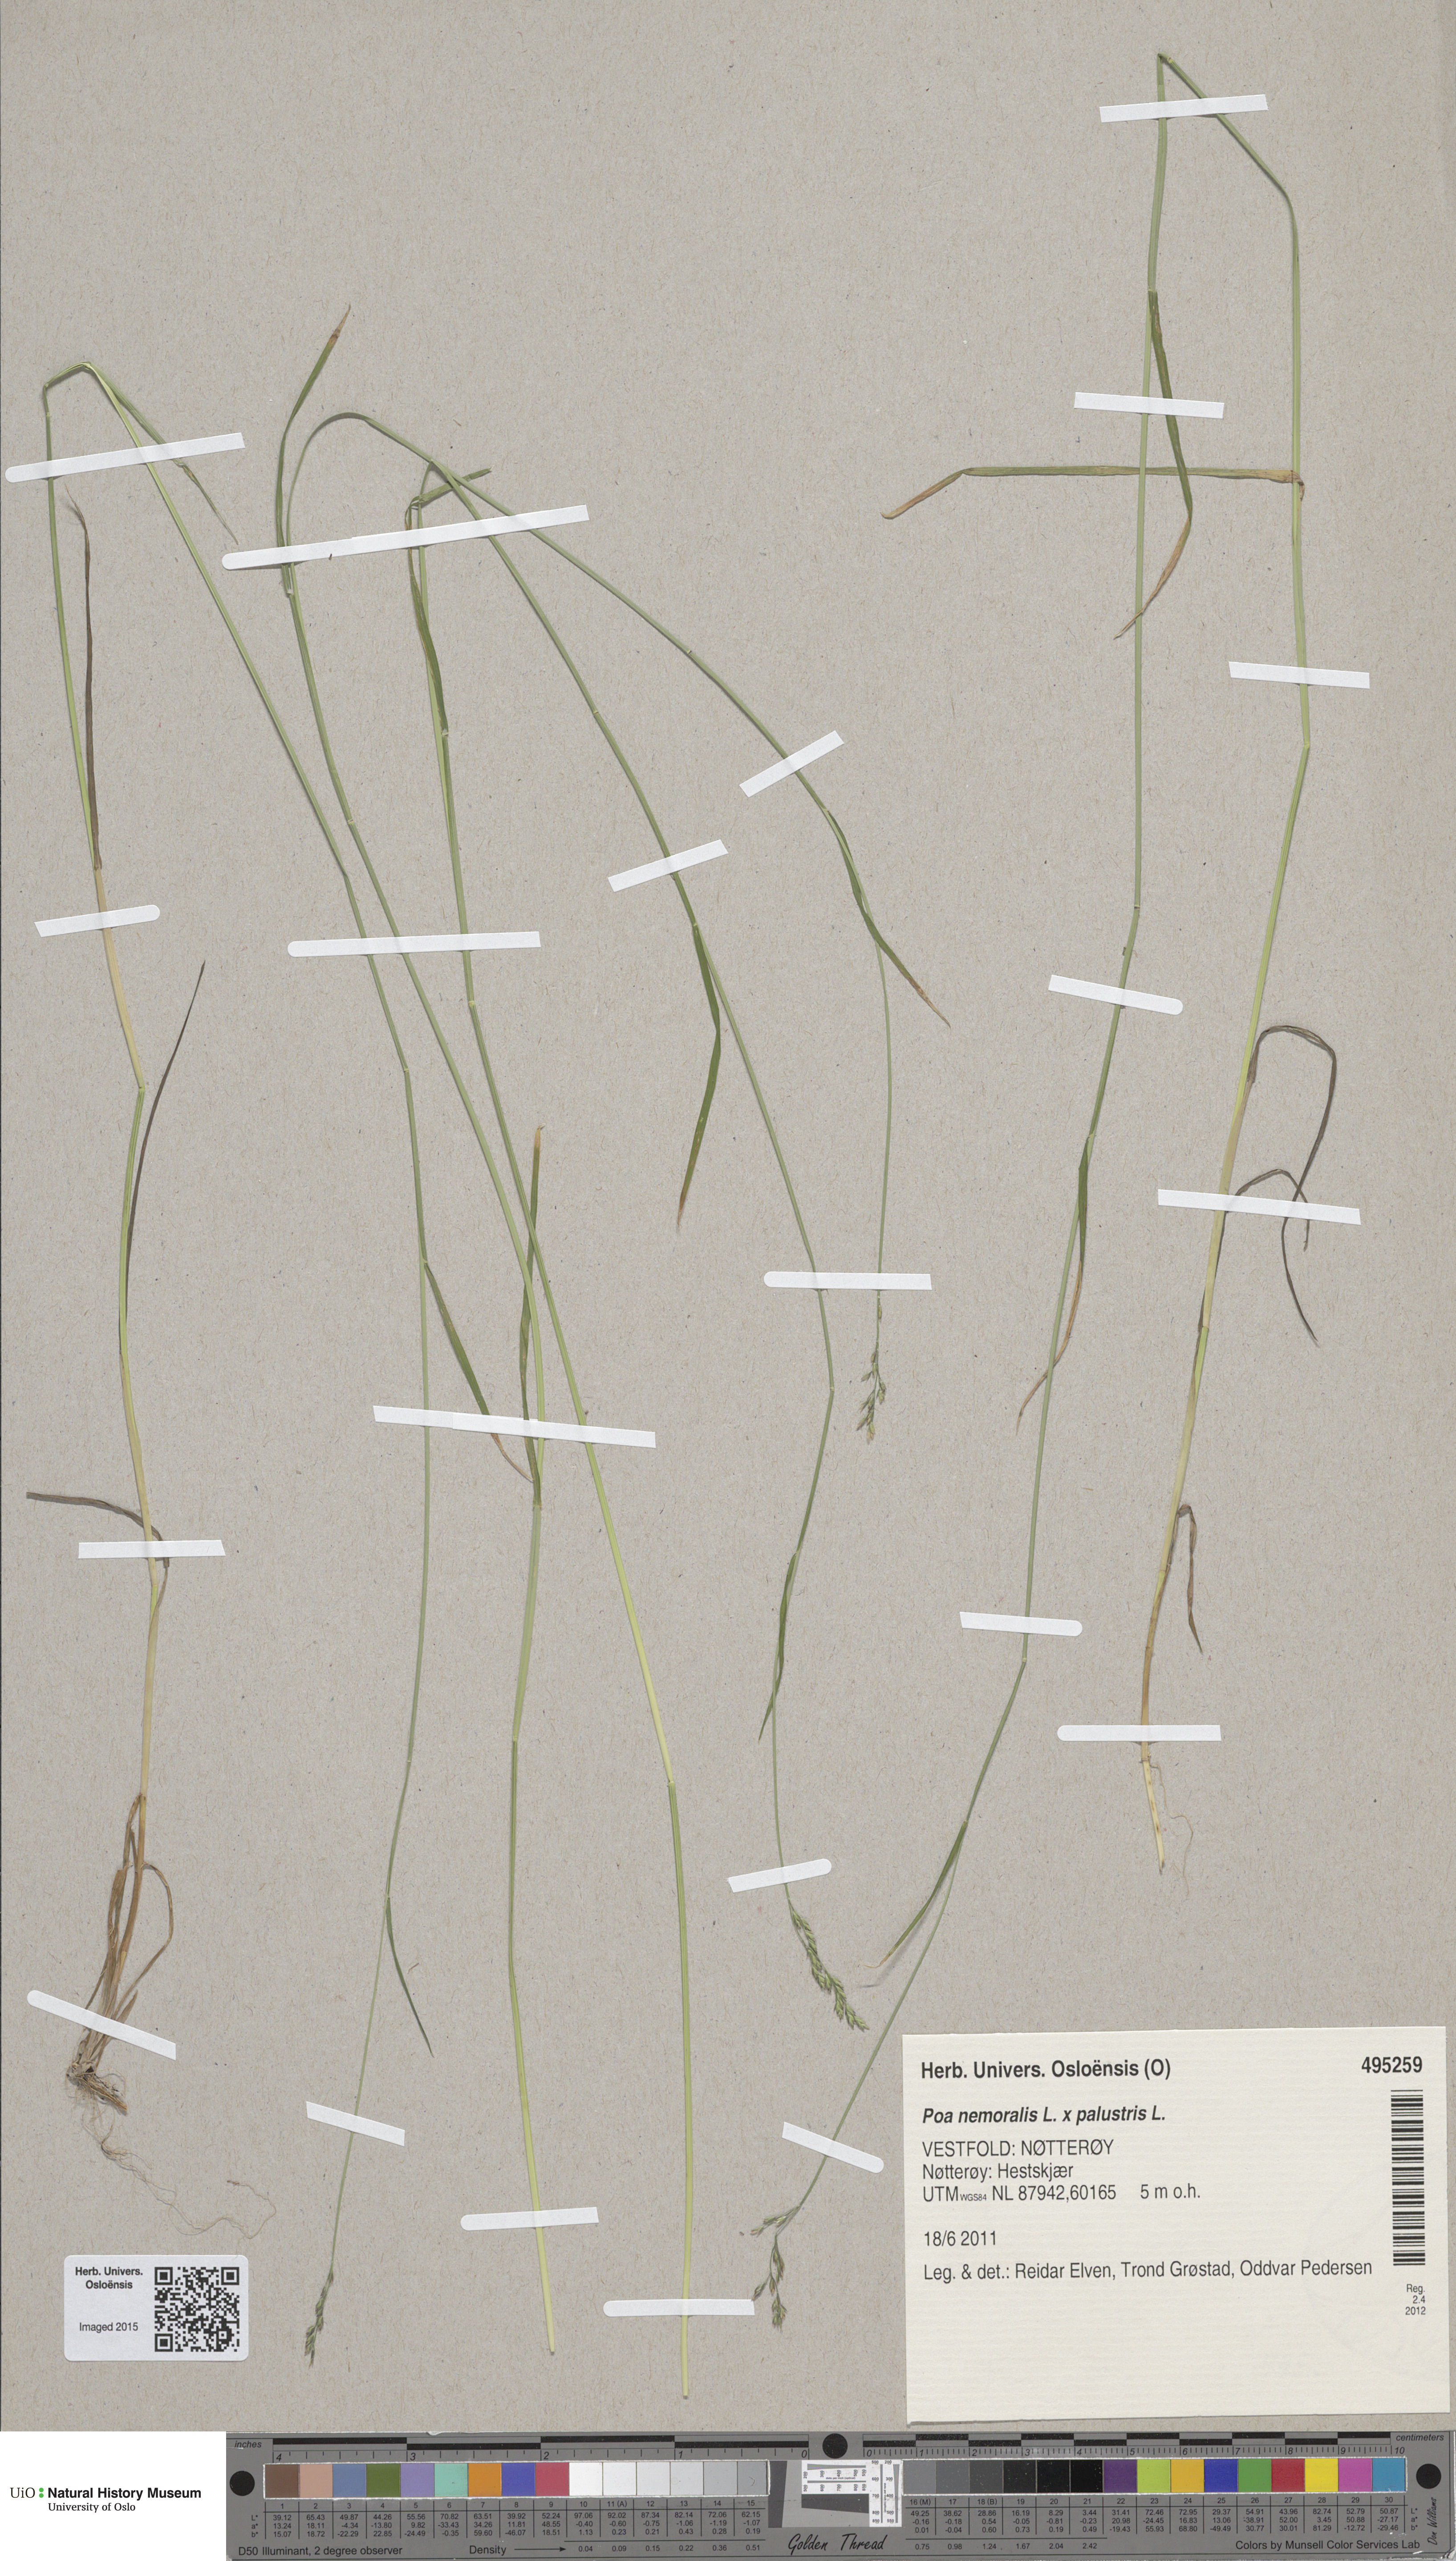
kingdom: Plantae
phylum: Tracheophyta
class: Liliopsida
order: Poales
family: Poaceae
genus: Poa
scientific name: Poa
